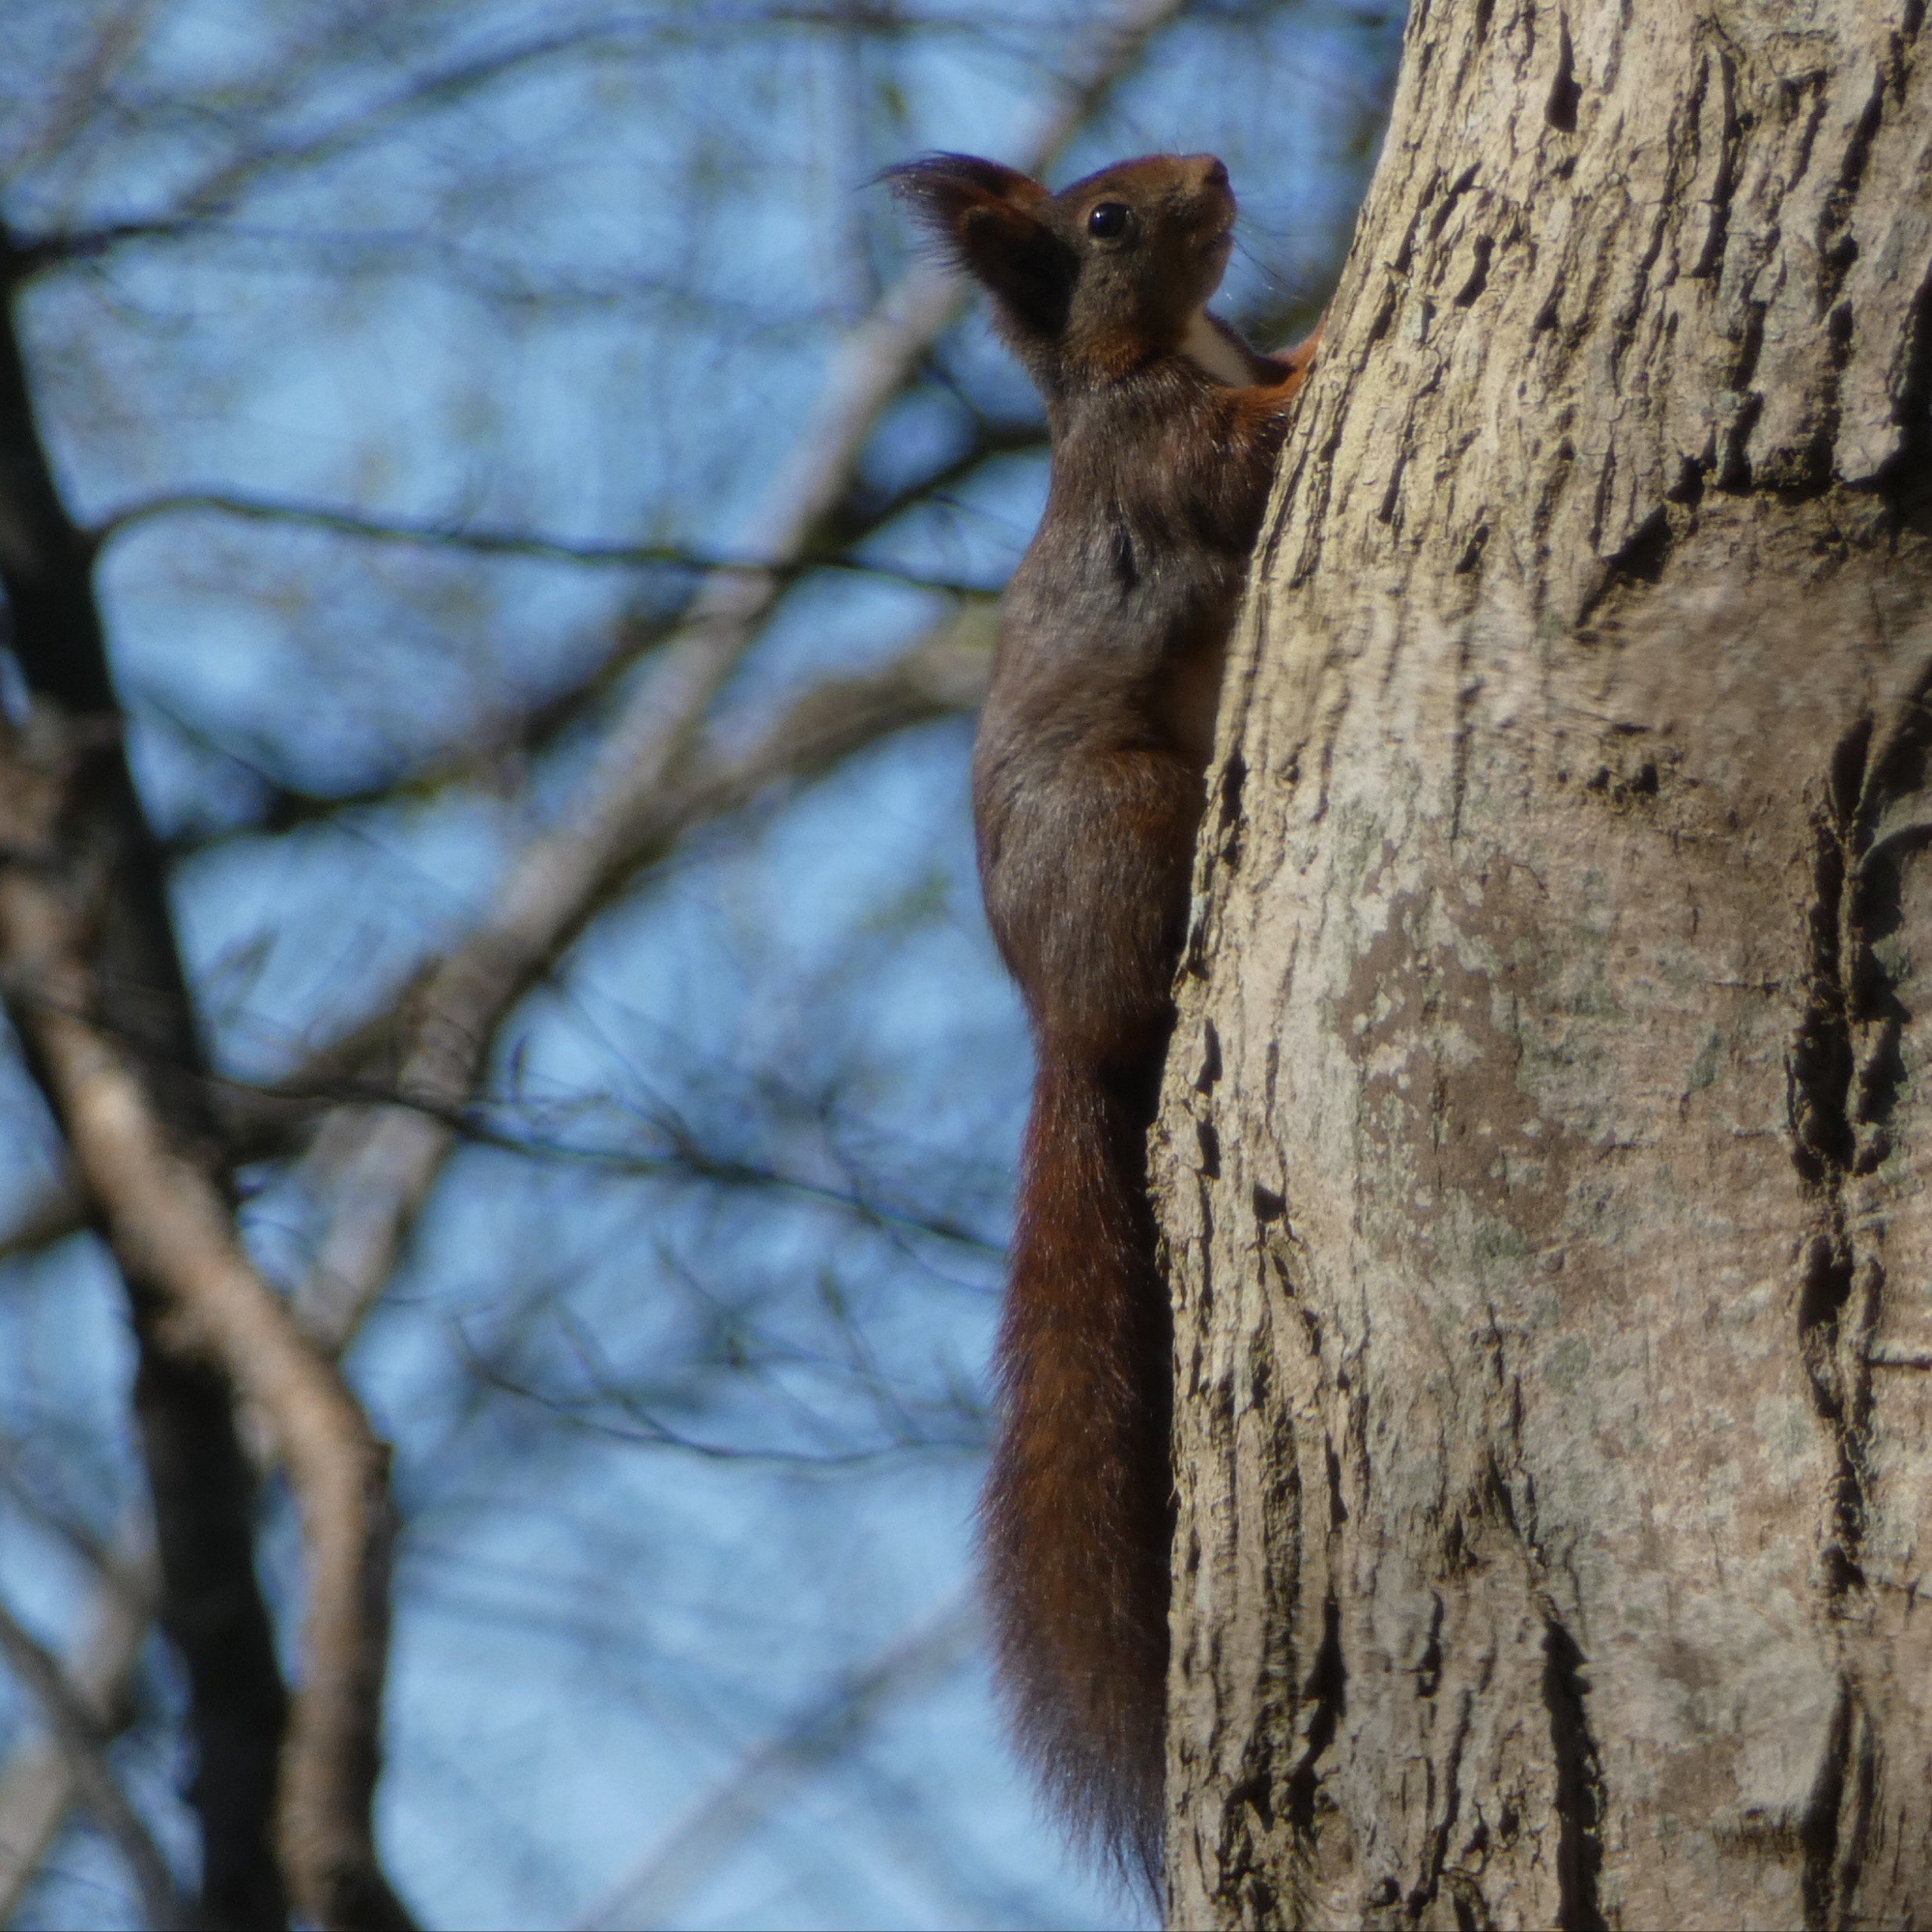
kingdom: Animalia
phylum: Chordata
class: Mammalia
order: Rodentia
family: Sciuridae
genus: Sciurus
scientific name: Sciurus vulgaris
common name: Egern
